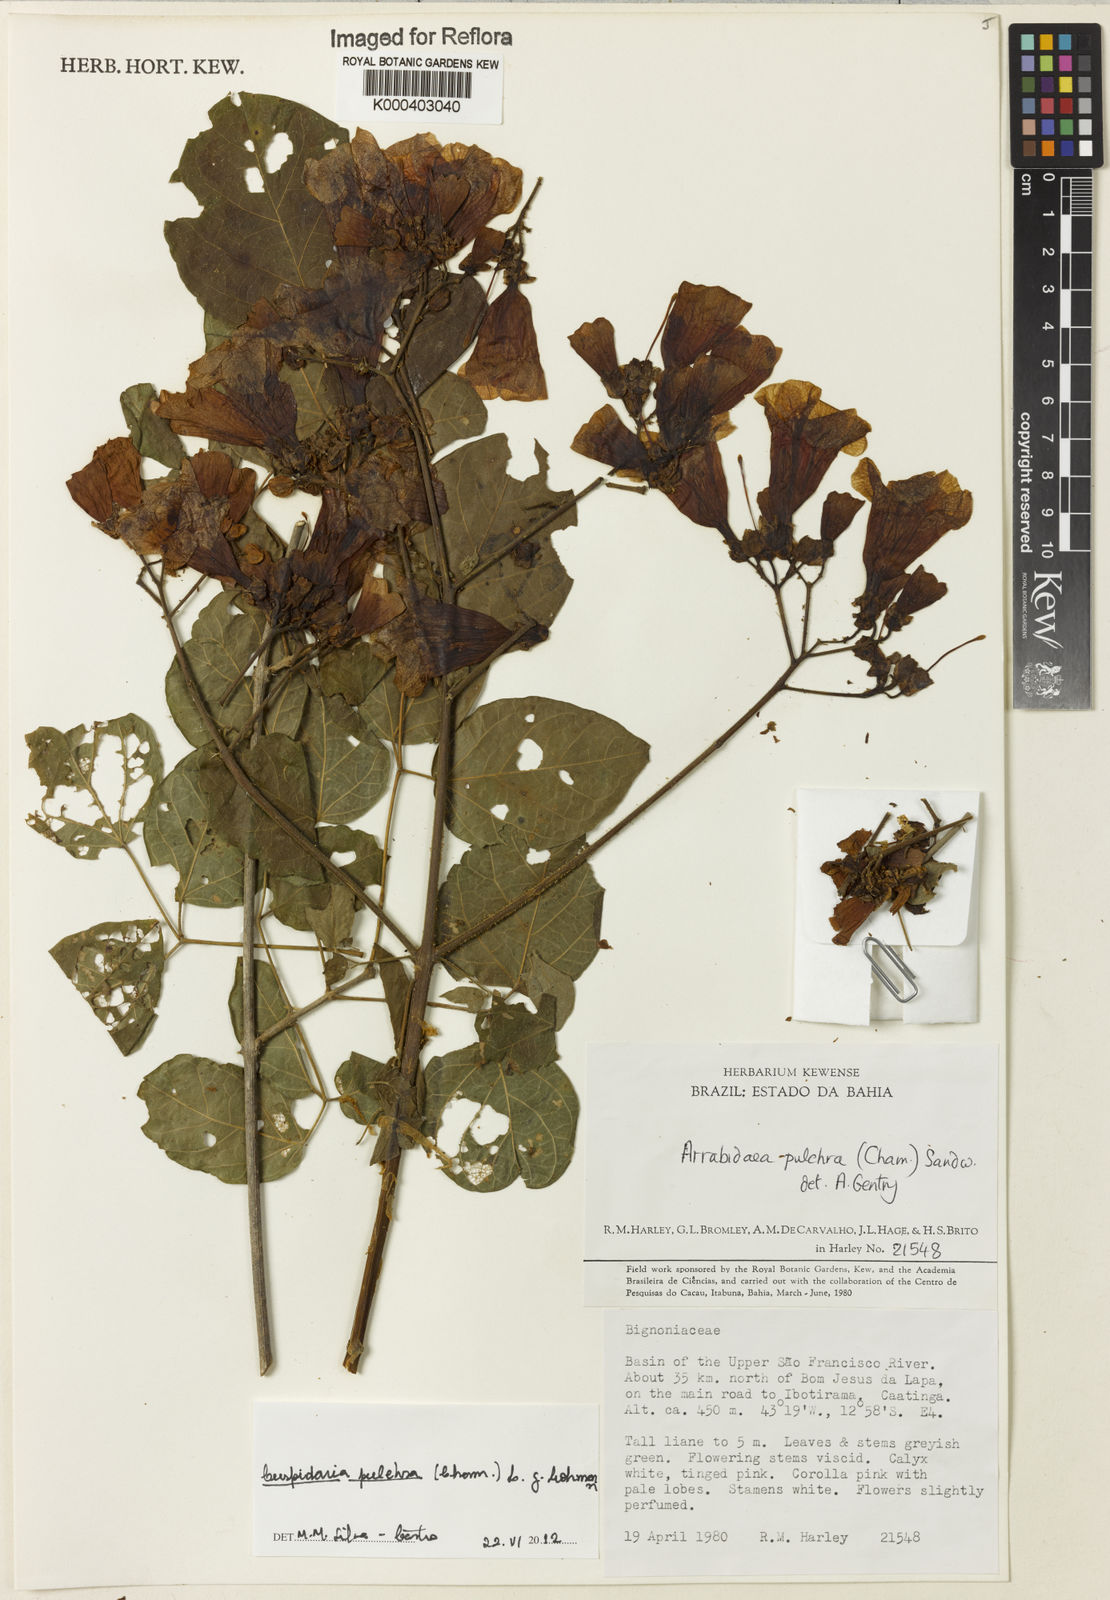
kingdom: Plantae
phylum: Tracheophyta
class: Magnoliopsida
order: Lamiales
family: Bignoniaceae
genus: Cuspidaria
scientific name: Cuspidaria pulchra
